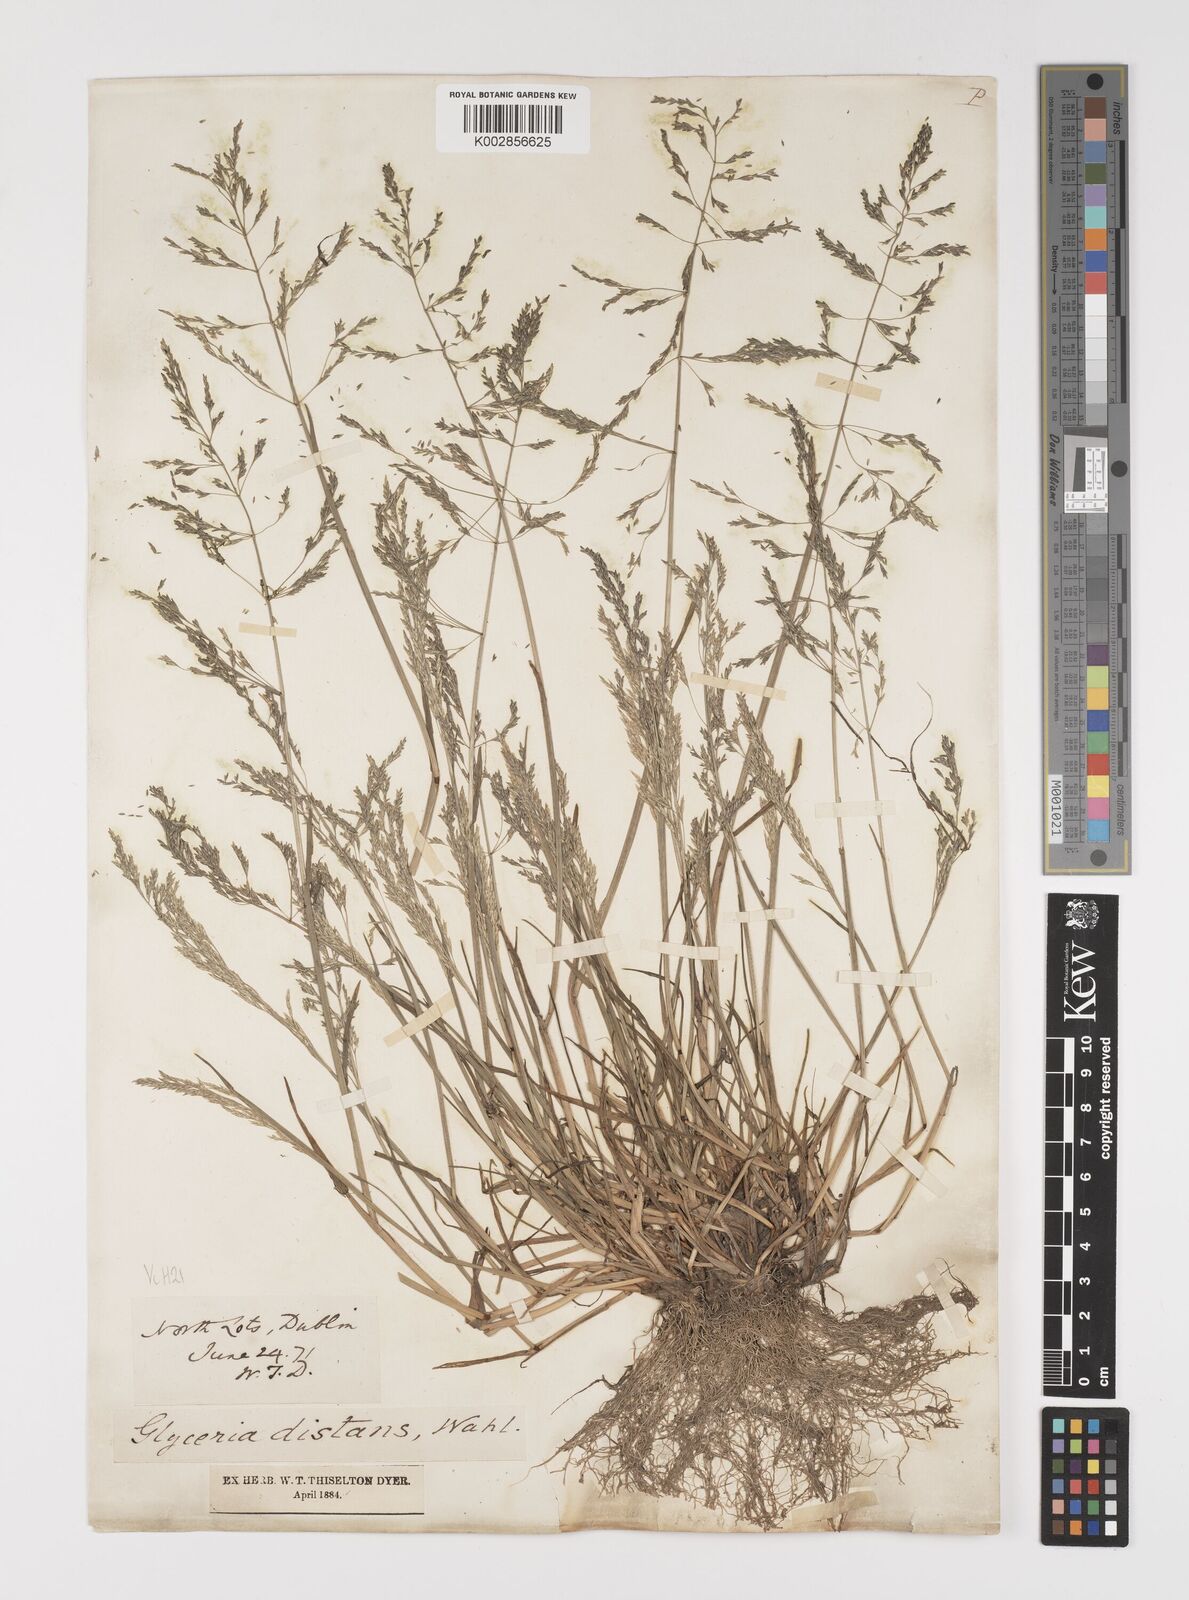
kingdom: Plantae
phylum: Tracheophyta
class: Liliopsida
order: Poales
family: Poaceae
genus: Puccinellia
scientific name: Puccinellia distans
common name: Weeping alkaligrass
